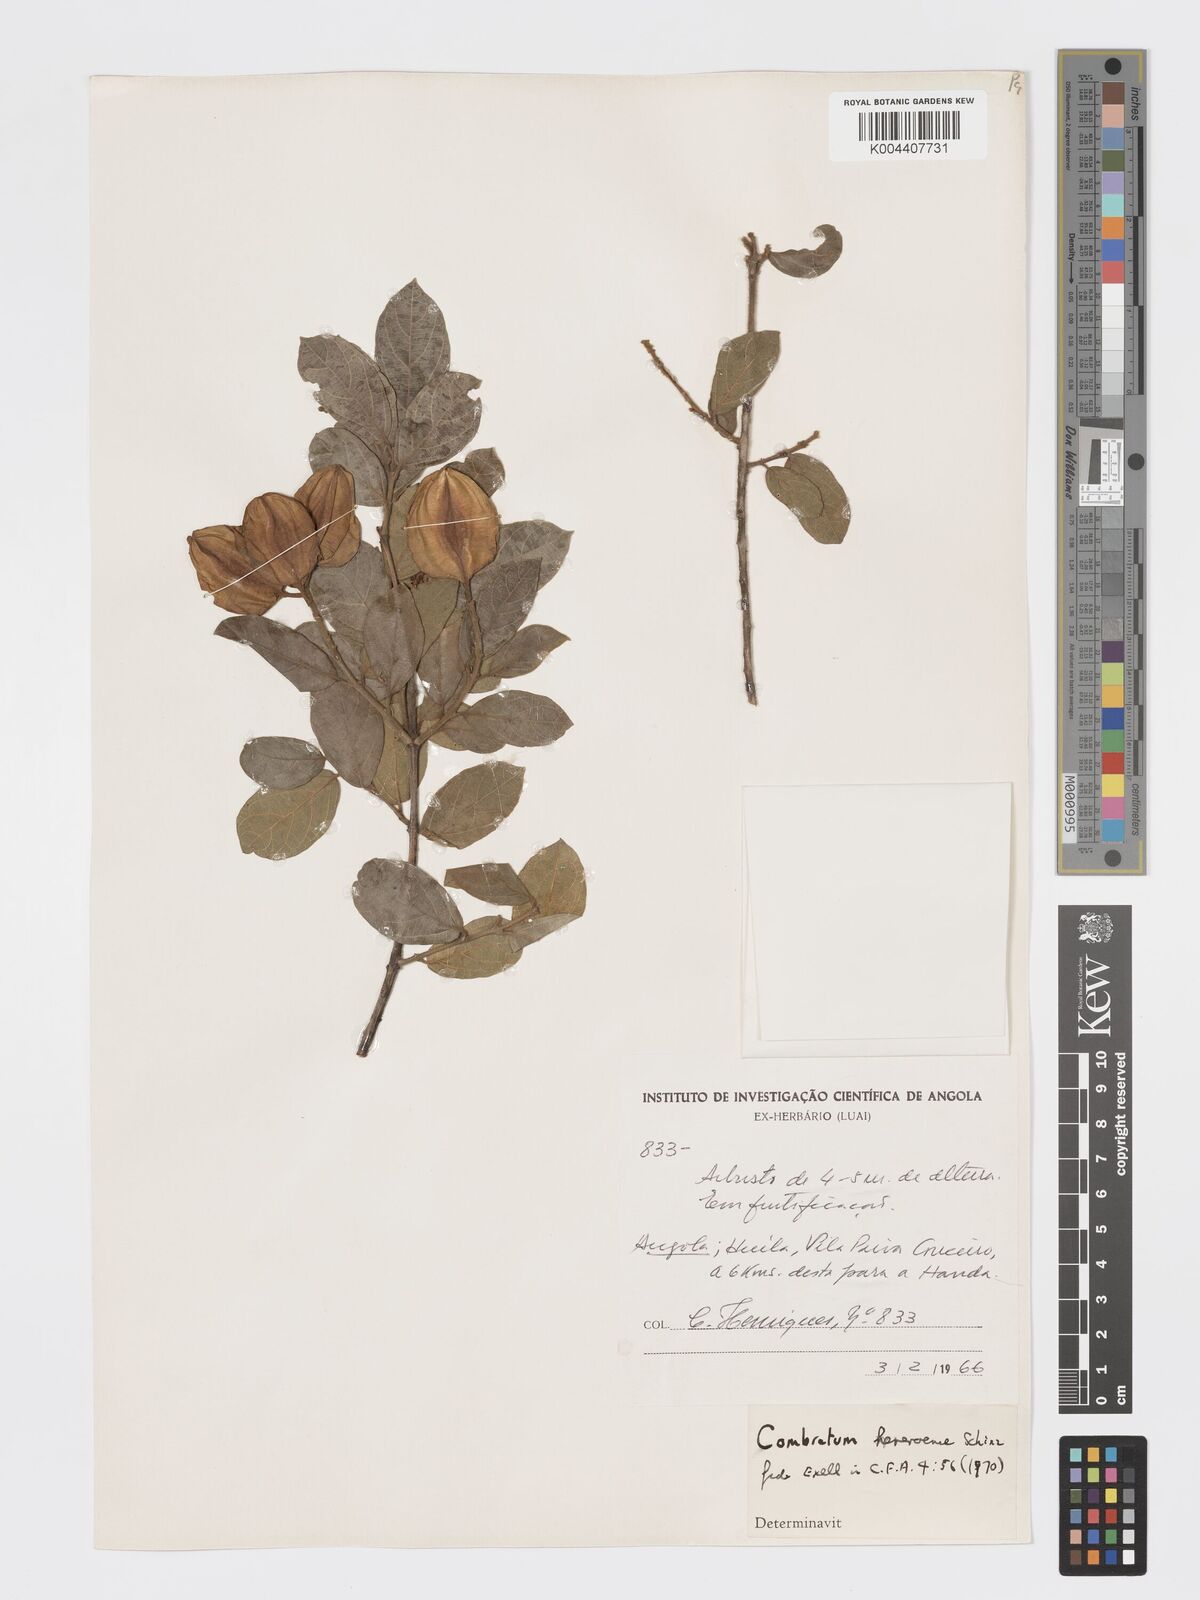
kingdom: Plantae
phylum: Tracheophyta
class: Magnoliopsida
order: Myrtales
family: Combretaceae
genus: Combretum
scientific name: Combretum hereroense
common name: Russet bushwillow
